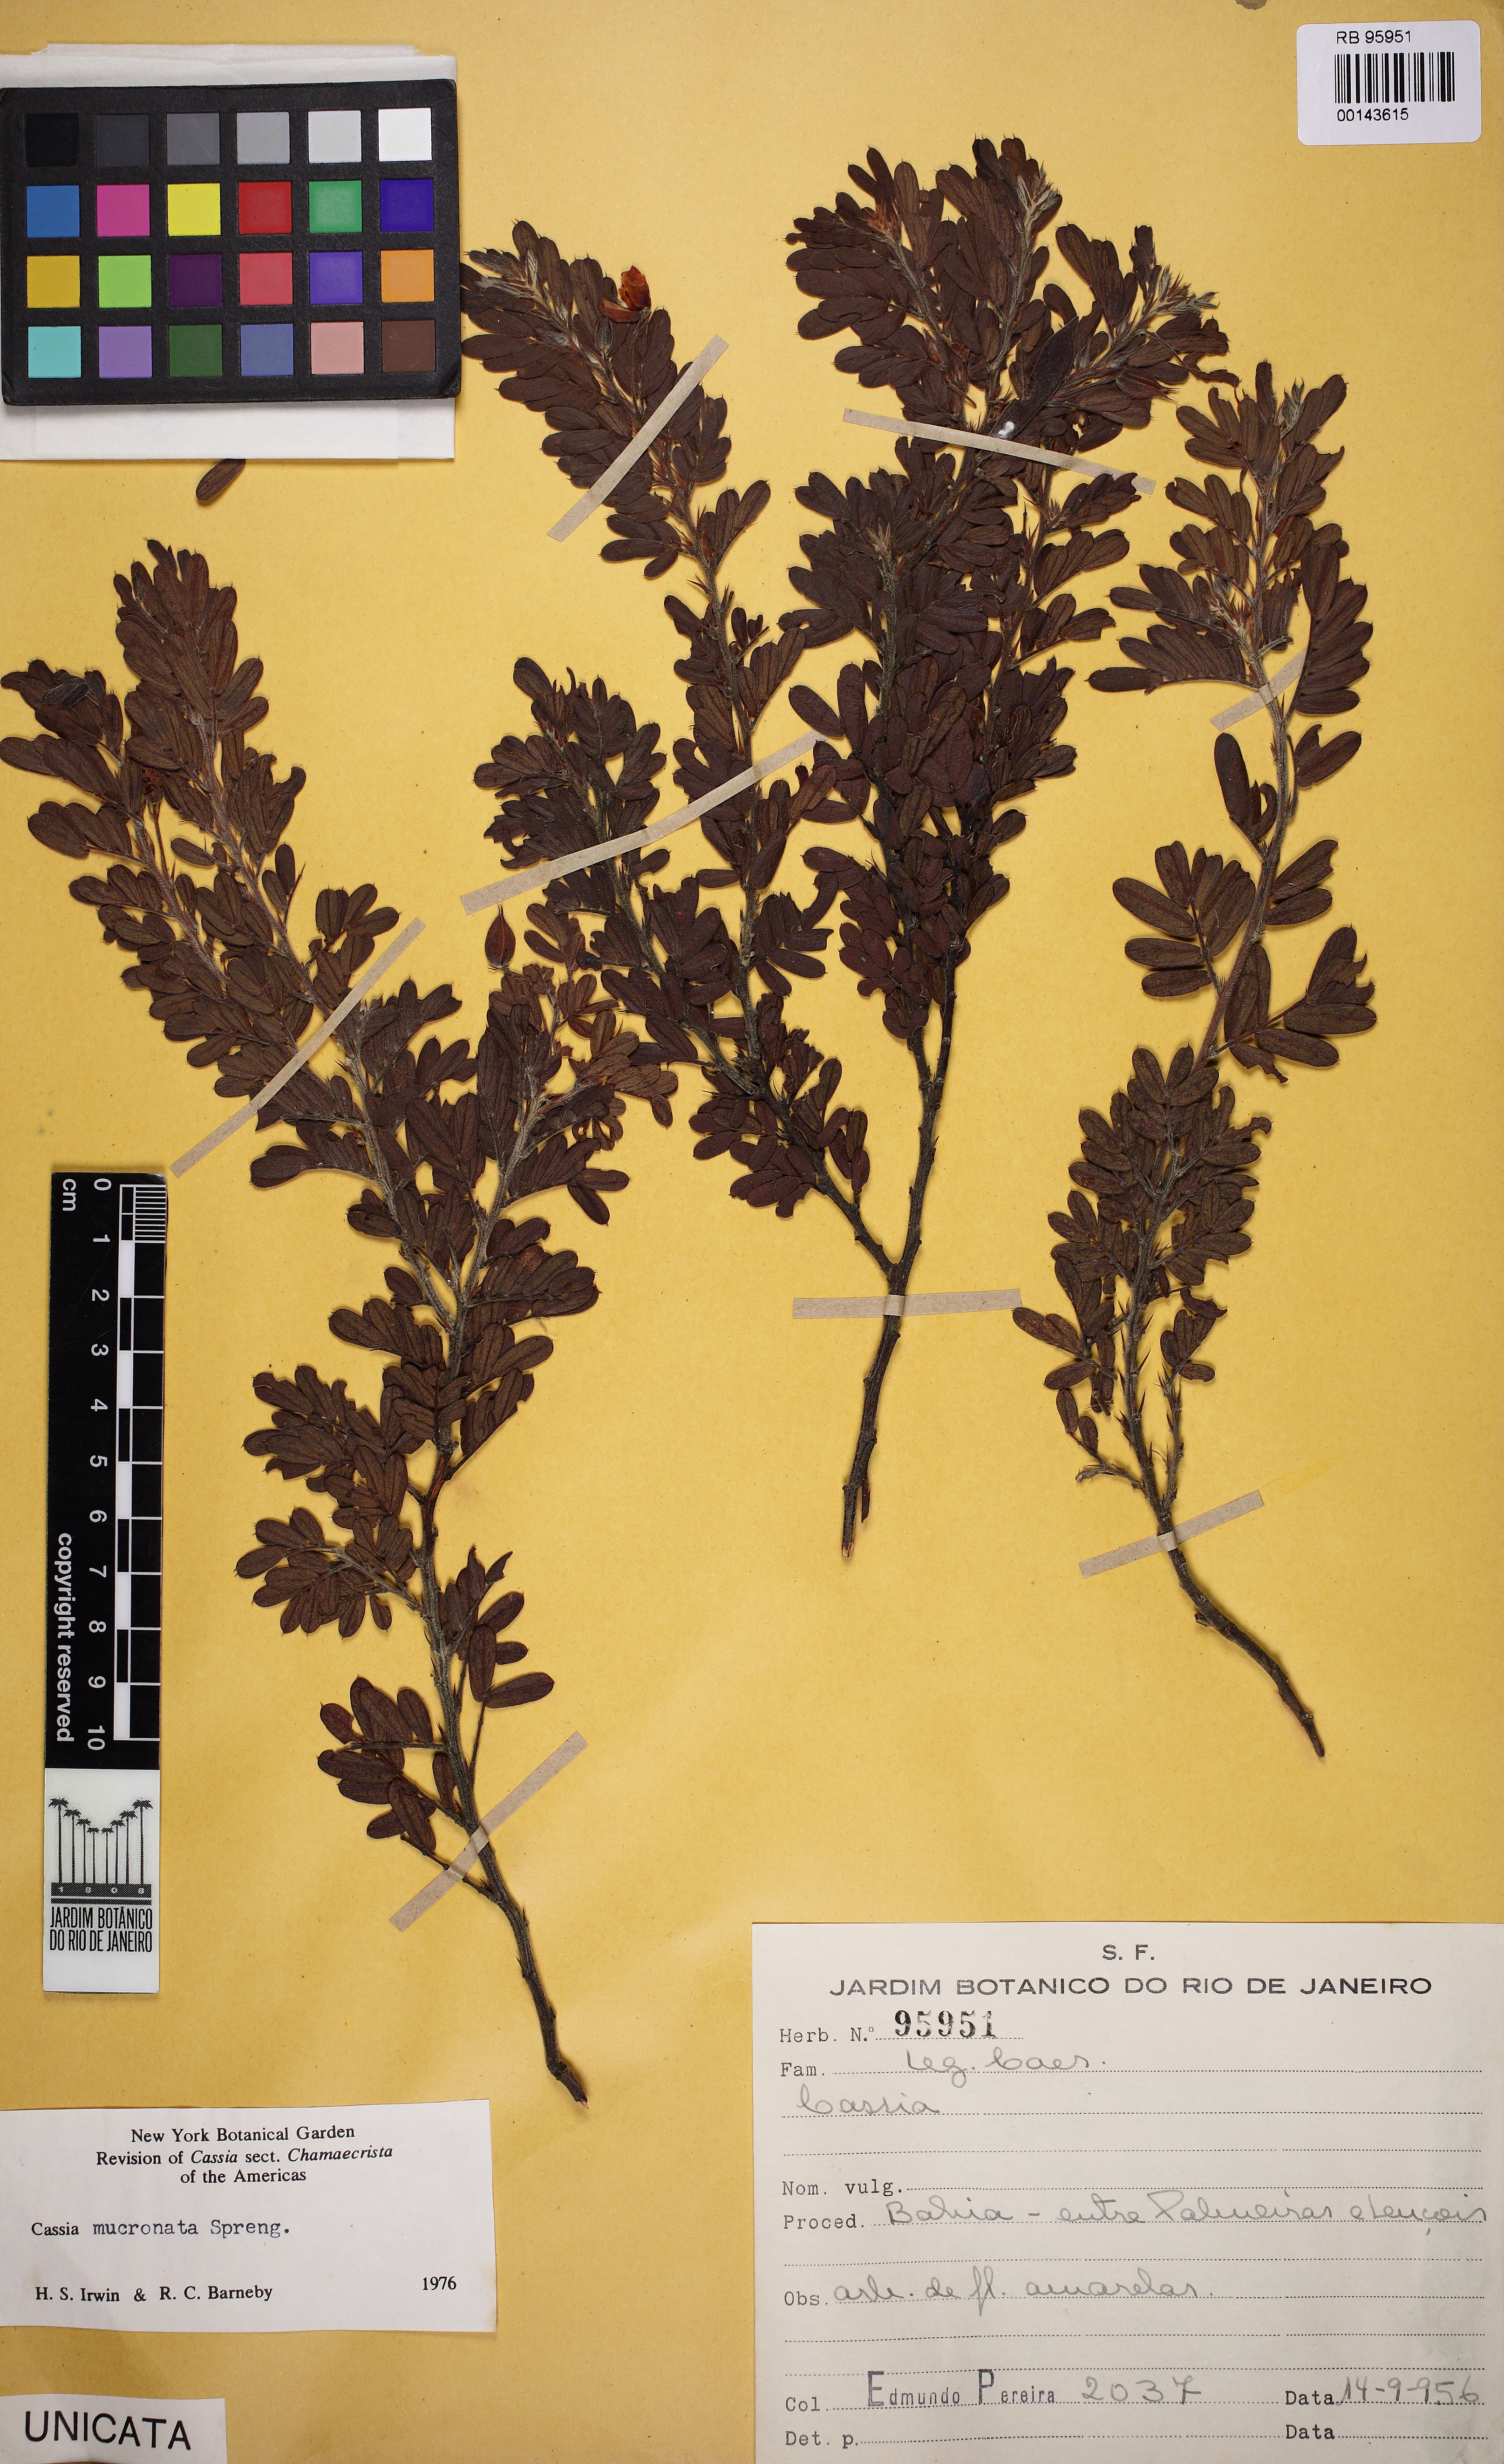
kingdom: Plantae
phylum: Tracheophyta
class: Magnoliopsida
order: Fabales
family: Fabaceae
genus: Chamaecrista
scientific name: Chamaecrista mucronata
